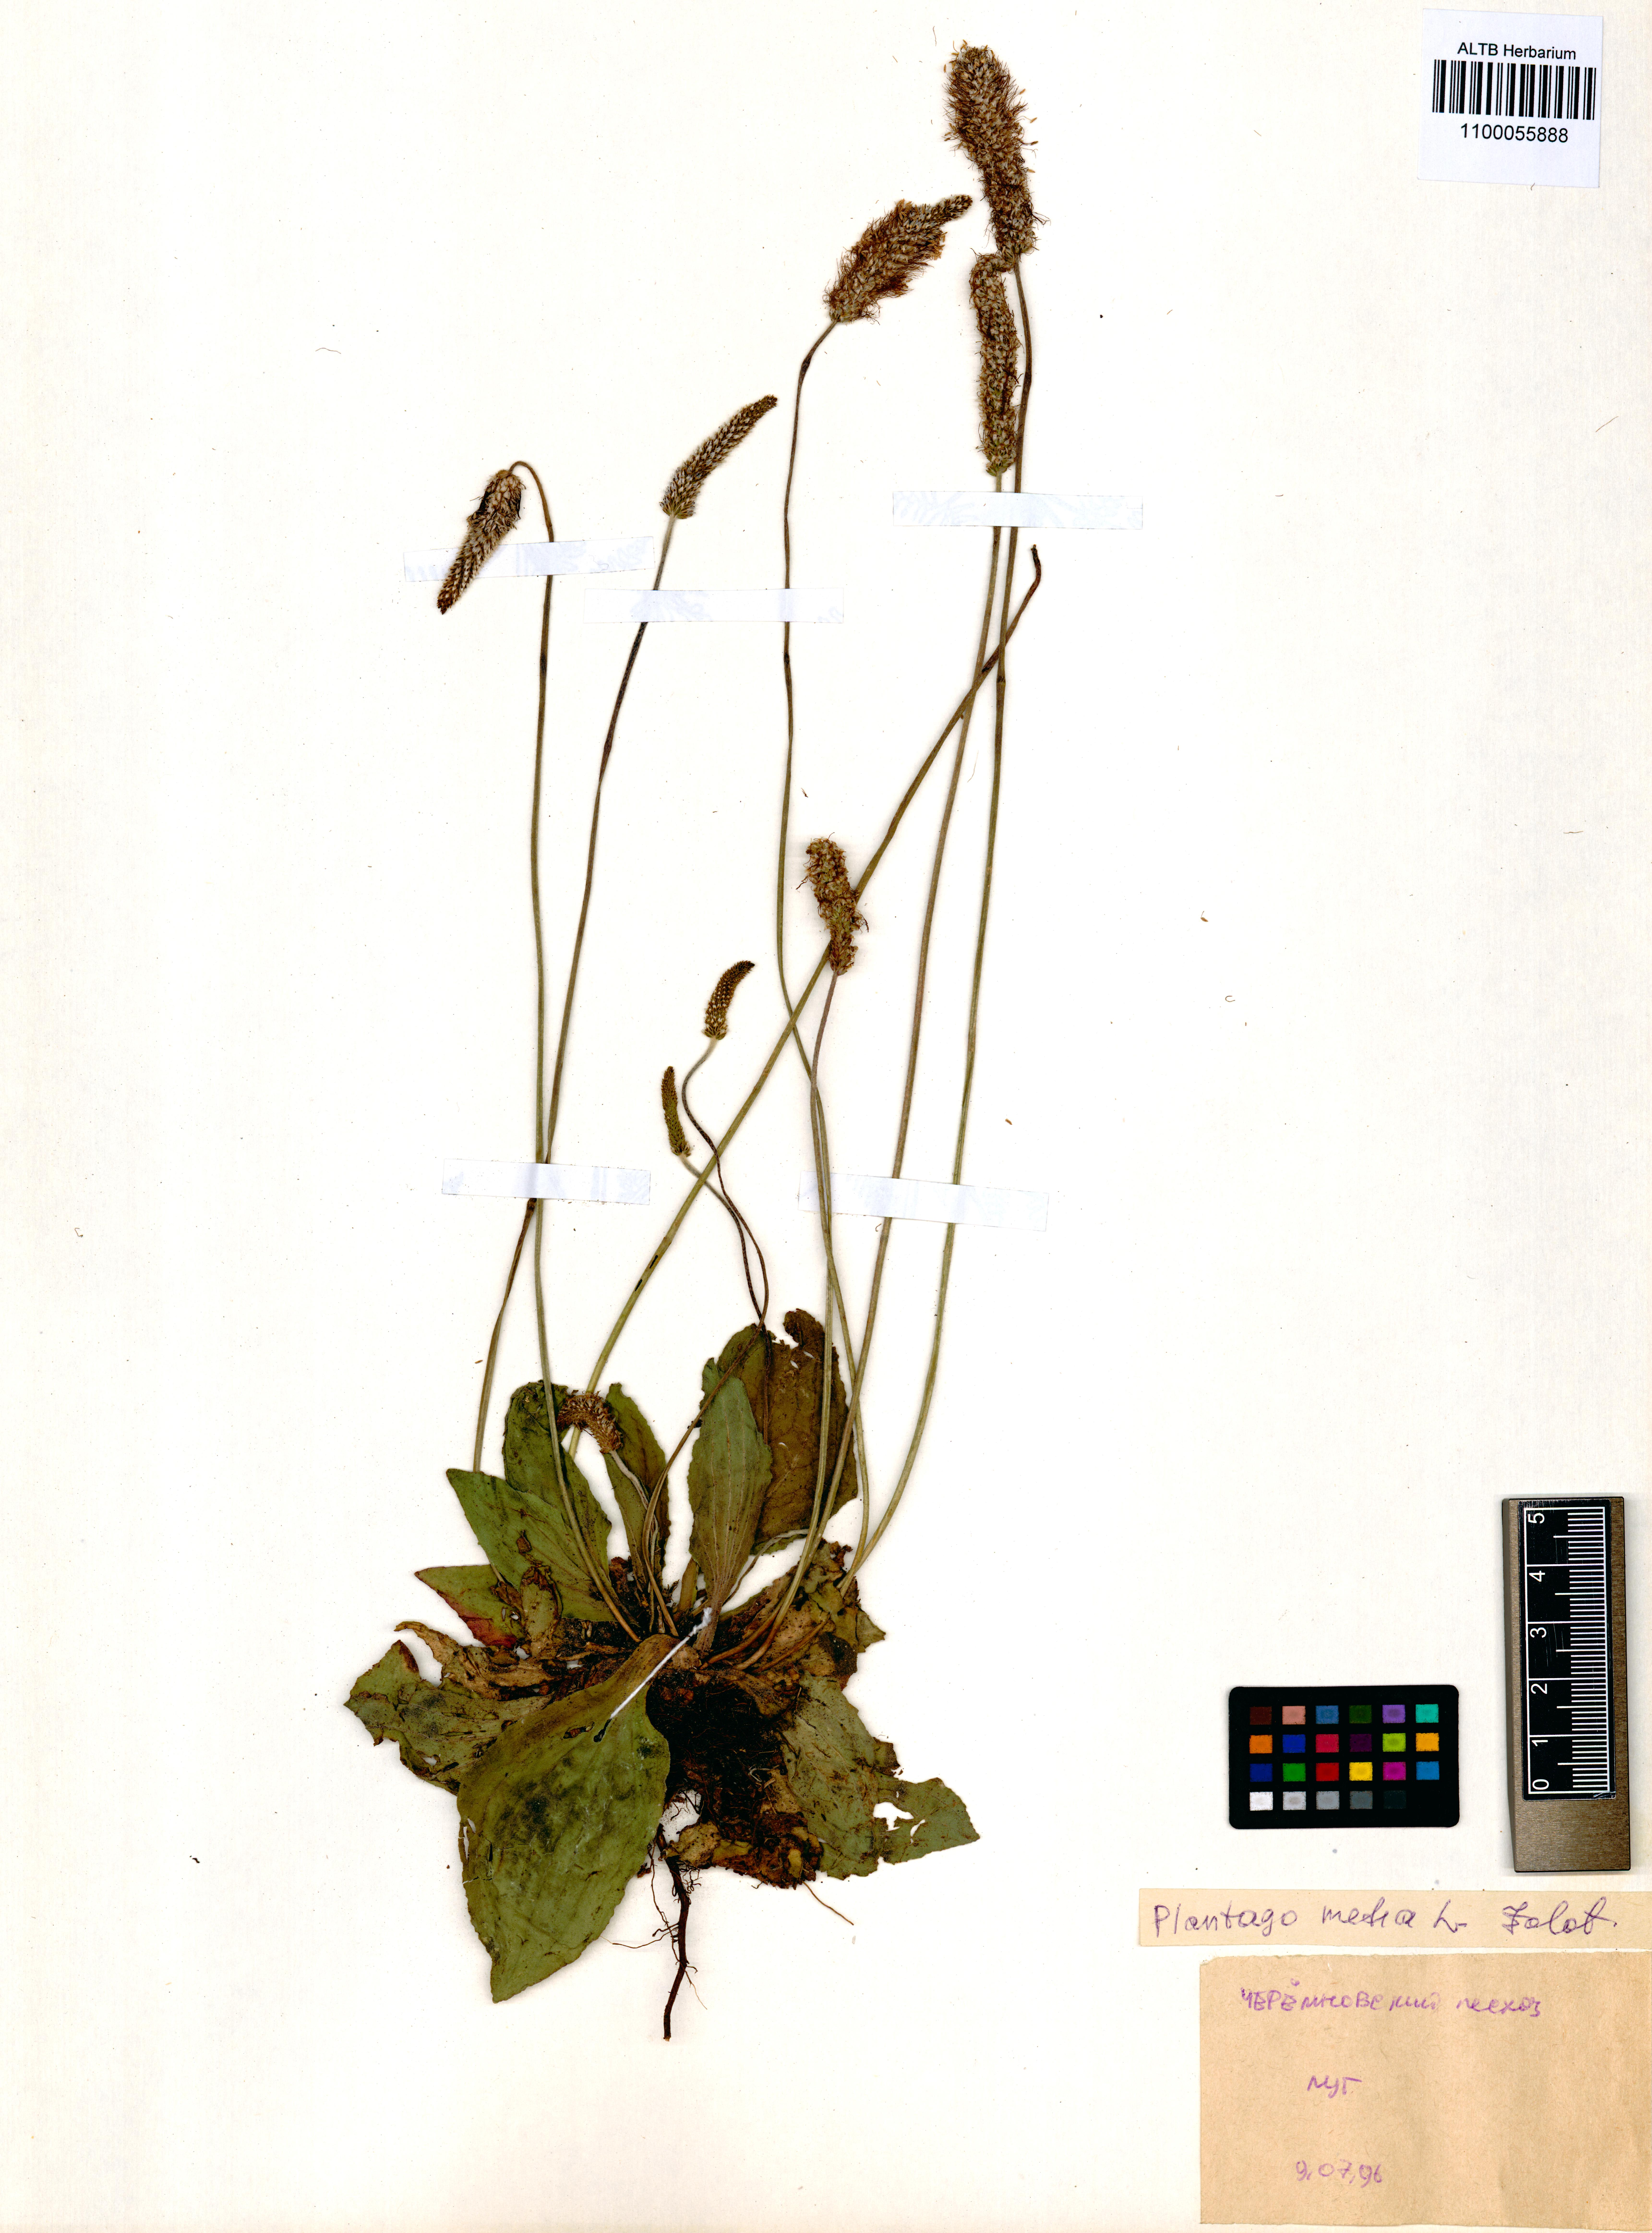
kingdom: Plantae
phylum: Tracheophyta
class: Magnoliopsida
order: Lamiales
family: Plantaginaceae
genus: Plantago
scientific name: Plantago media
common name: Hoary plantain
